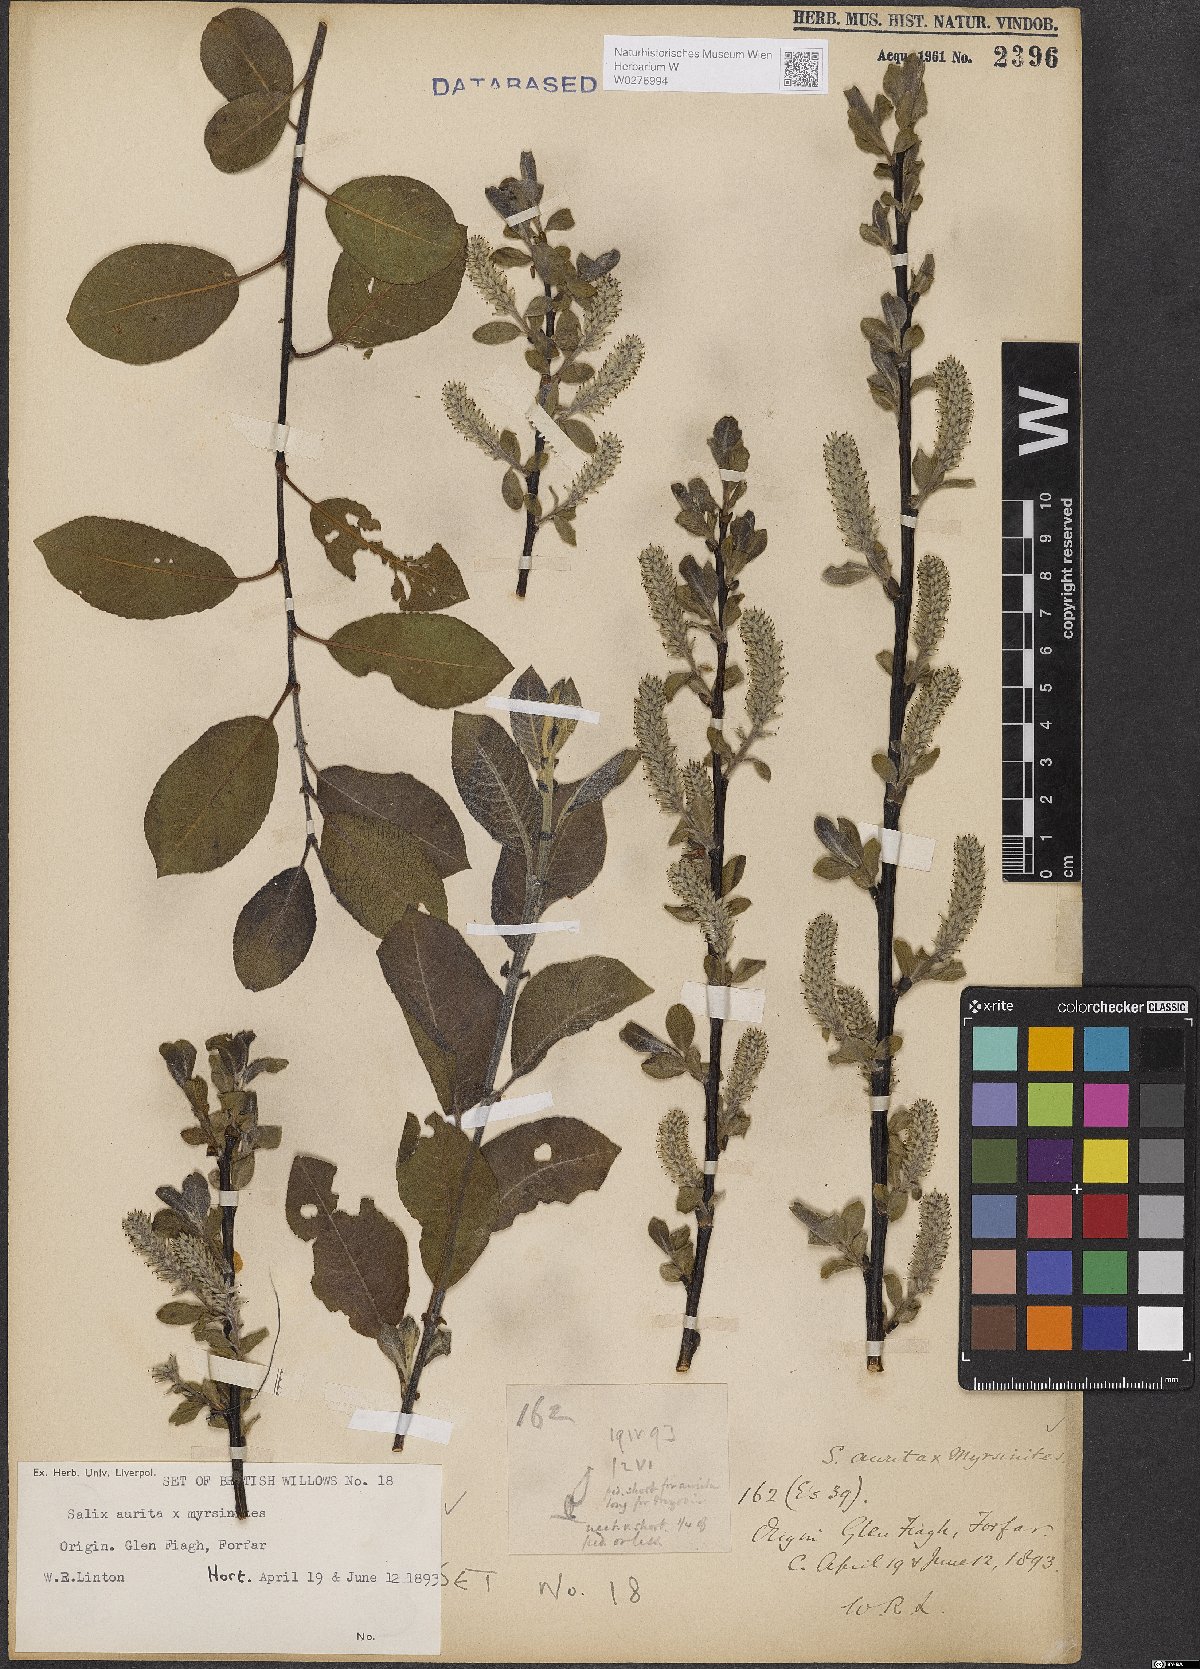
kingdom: Plantae
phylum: Tracheophyta
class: Magnoliopsida
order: Malpighiales
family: Salicaceae
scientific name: Salicaceae
